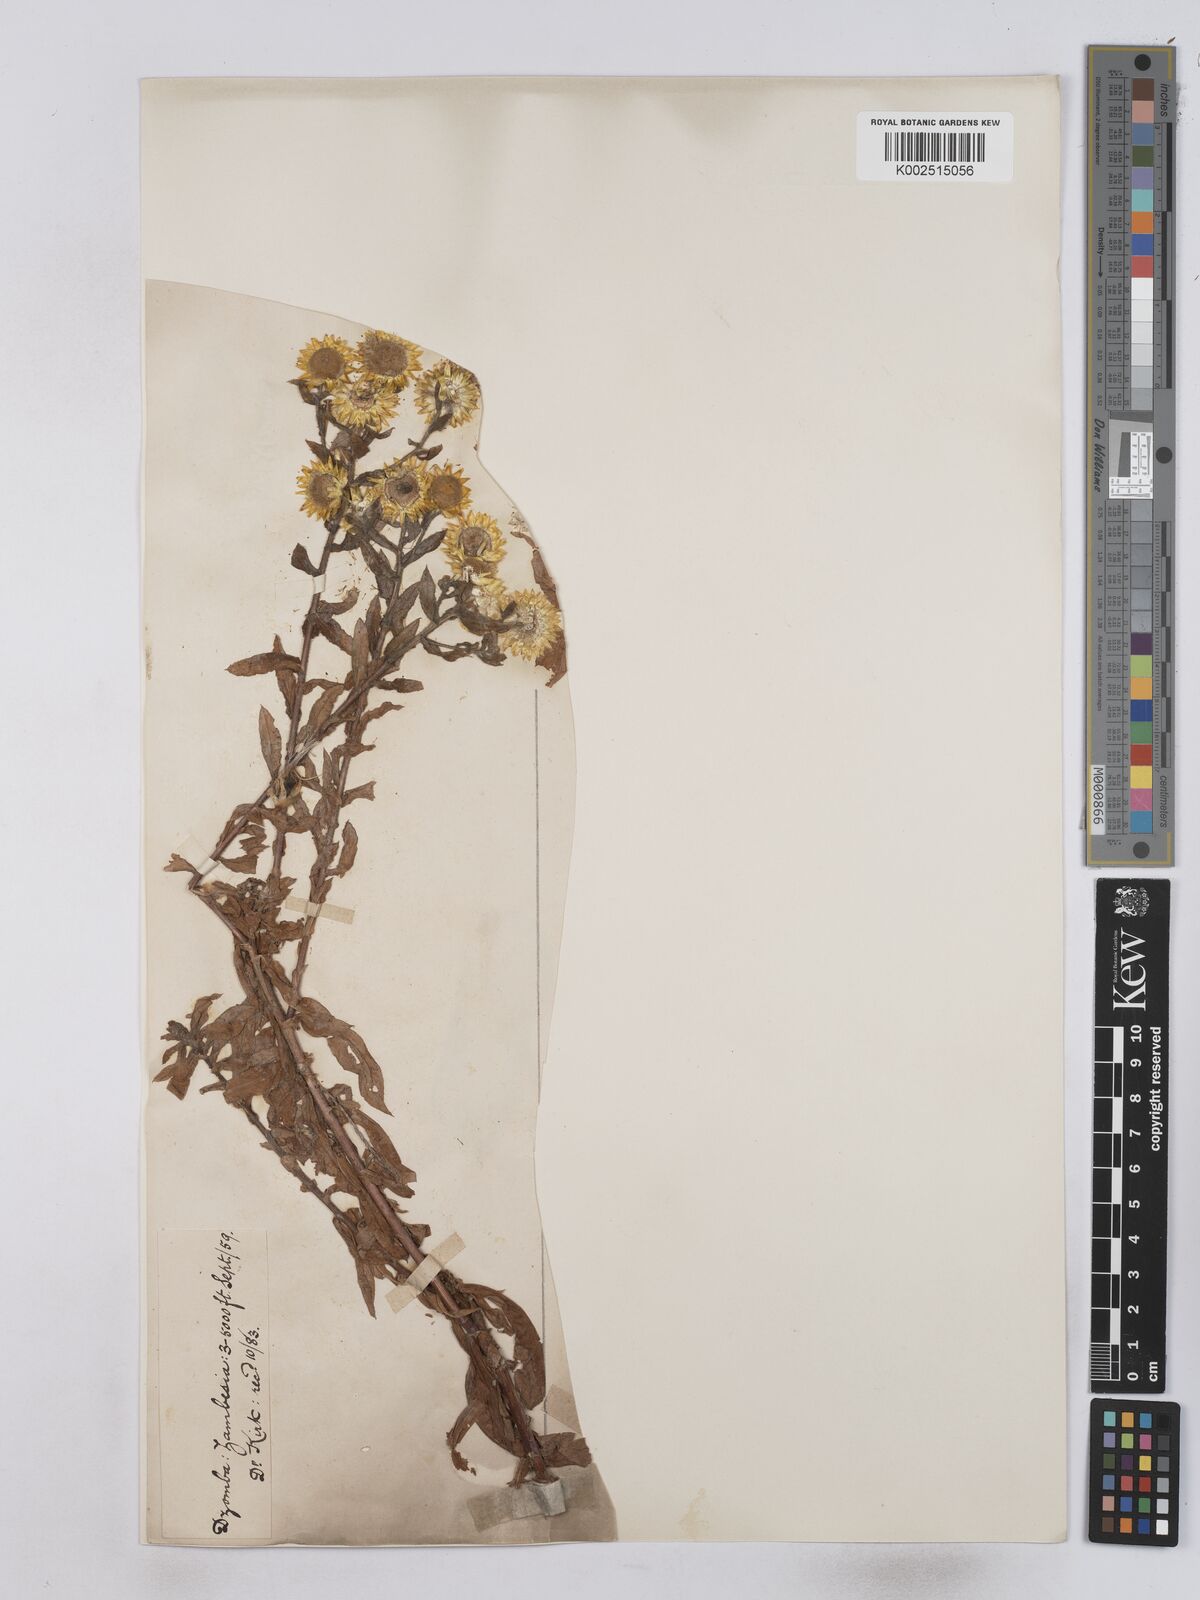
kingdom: Plantae
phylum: Tracheophyta
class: Magnoliopsida
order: Asterales
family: Asteraceae
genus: Helichrysum
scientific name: Helichrysum setosum
